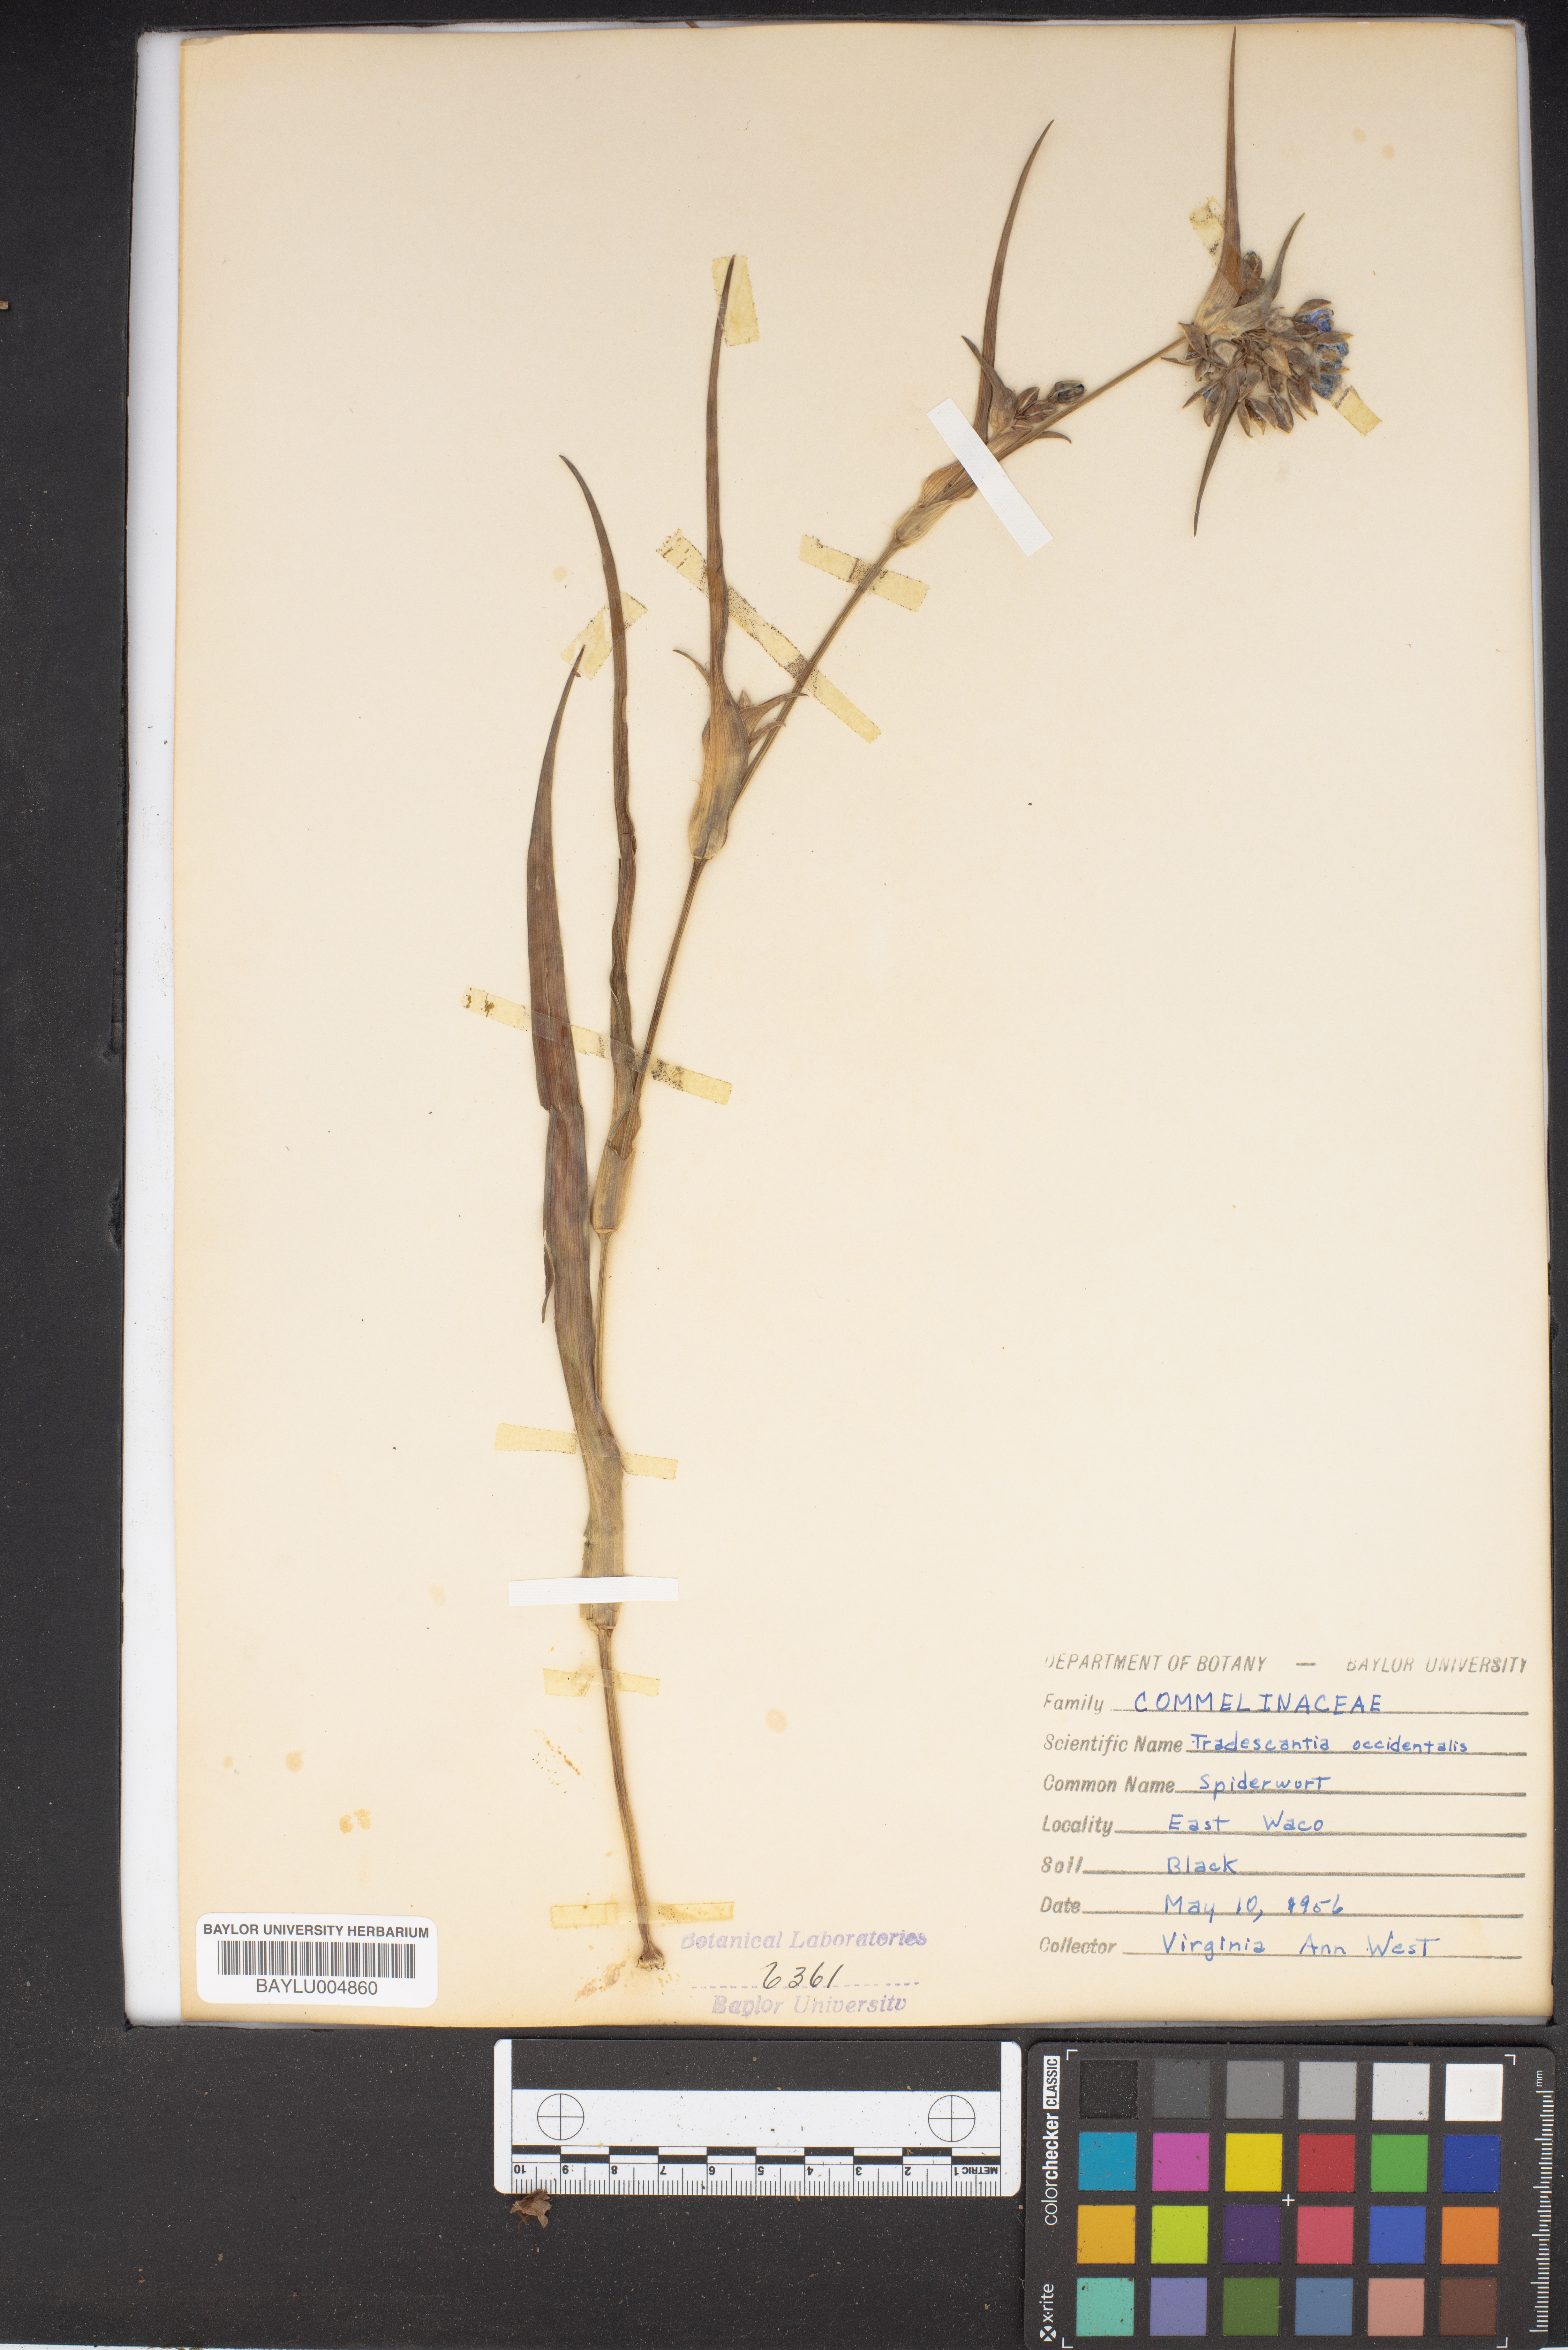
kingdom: Plantae
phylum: Tracheophyta
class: Liliopsida
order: Commelinales
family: Commelinaceae
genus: Tradescantia
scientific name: Tradescantia occidentalis
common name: Prairie spiderwort
